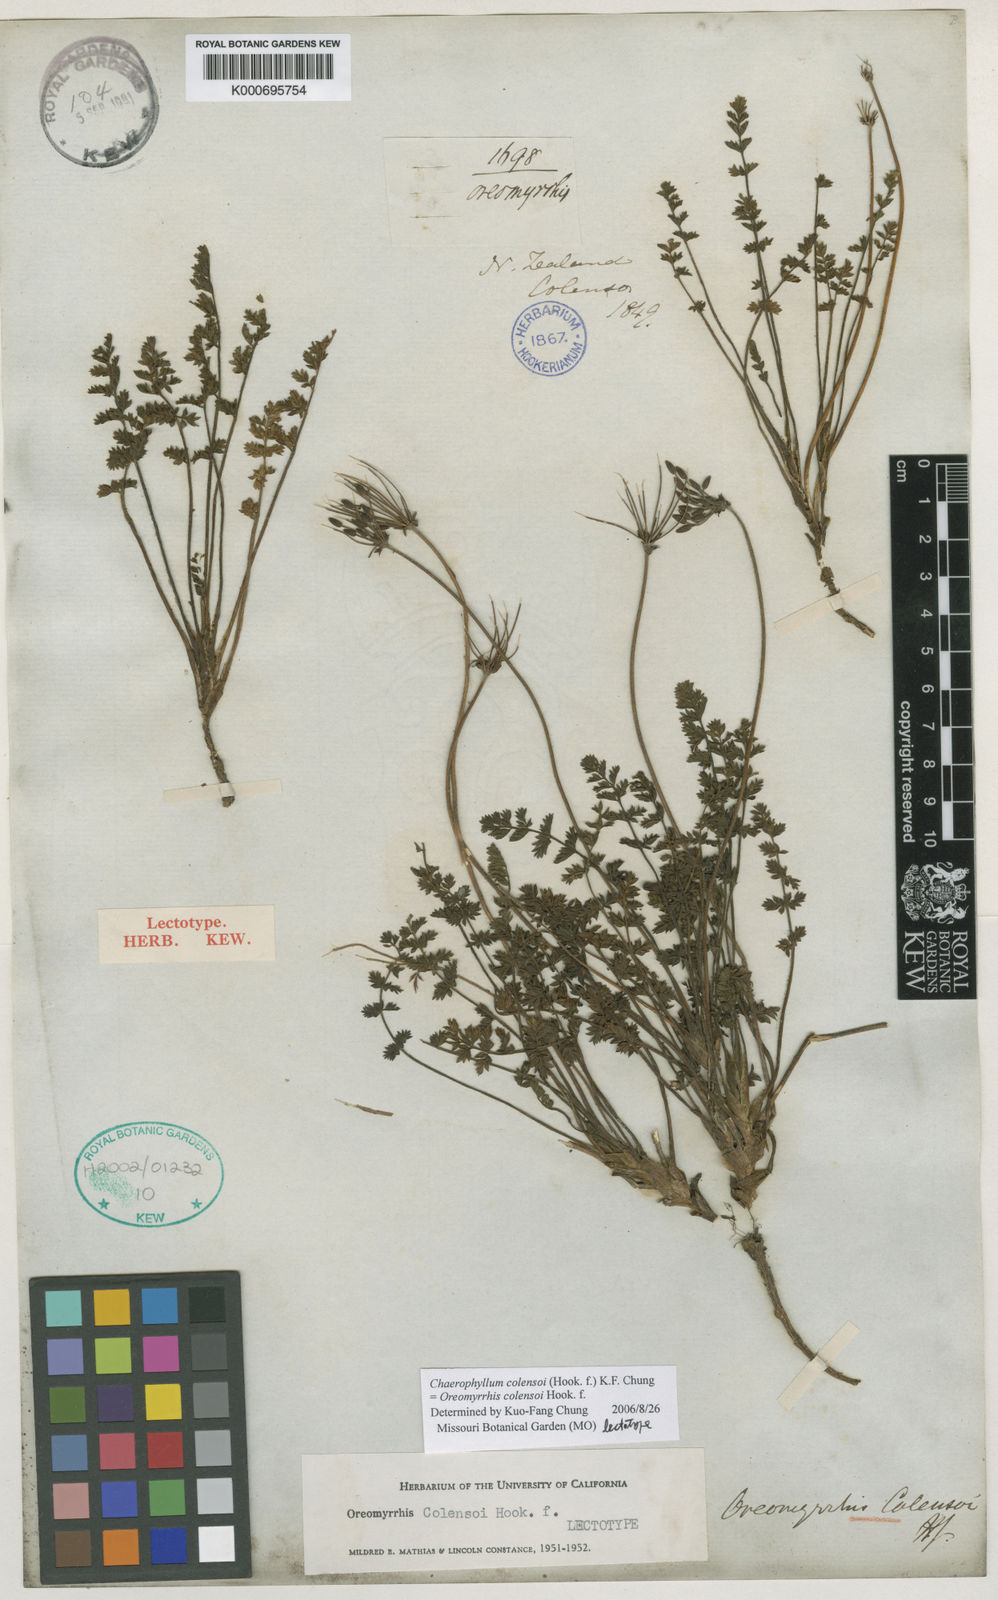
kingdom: Plantae
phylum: Tracheophyta
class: Magnoliopsida
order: Apiales
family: Apiaceae
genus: Chaerophyllum
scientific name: Chaerophyllum colensoi
